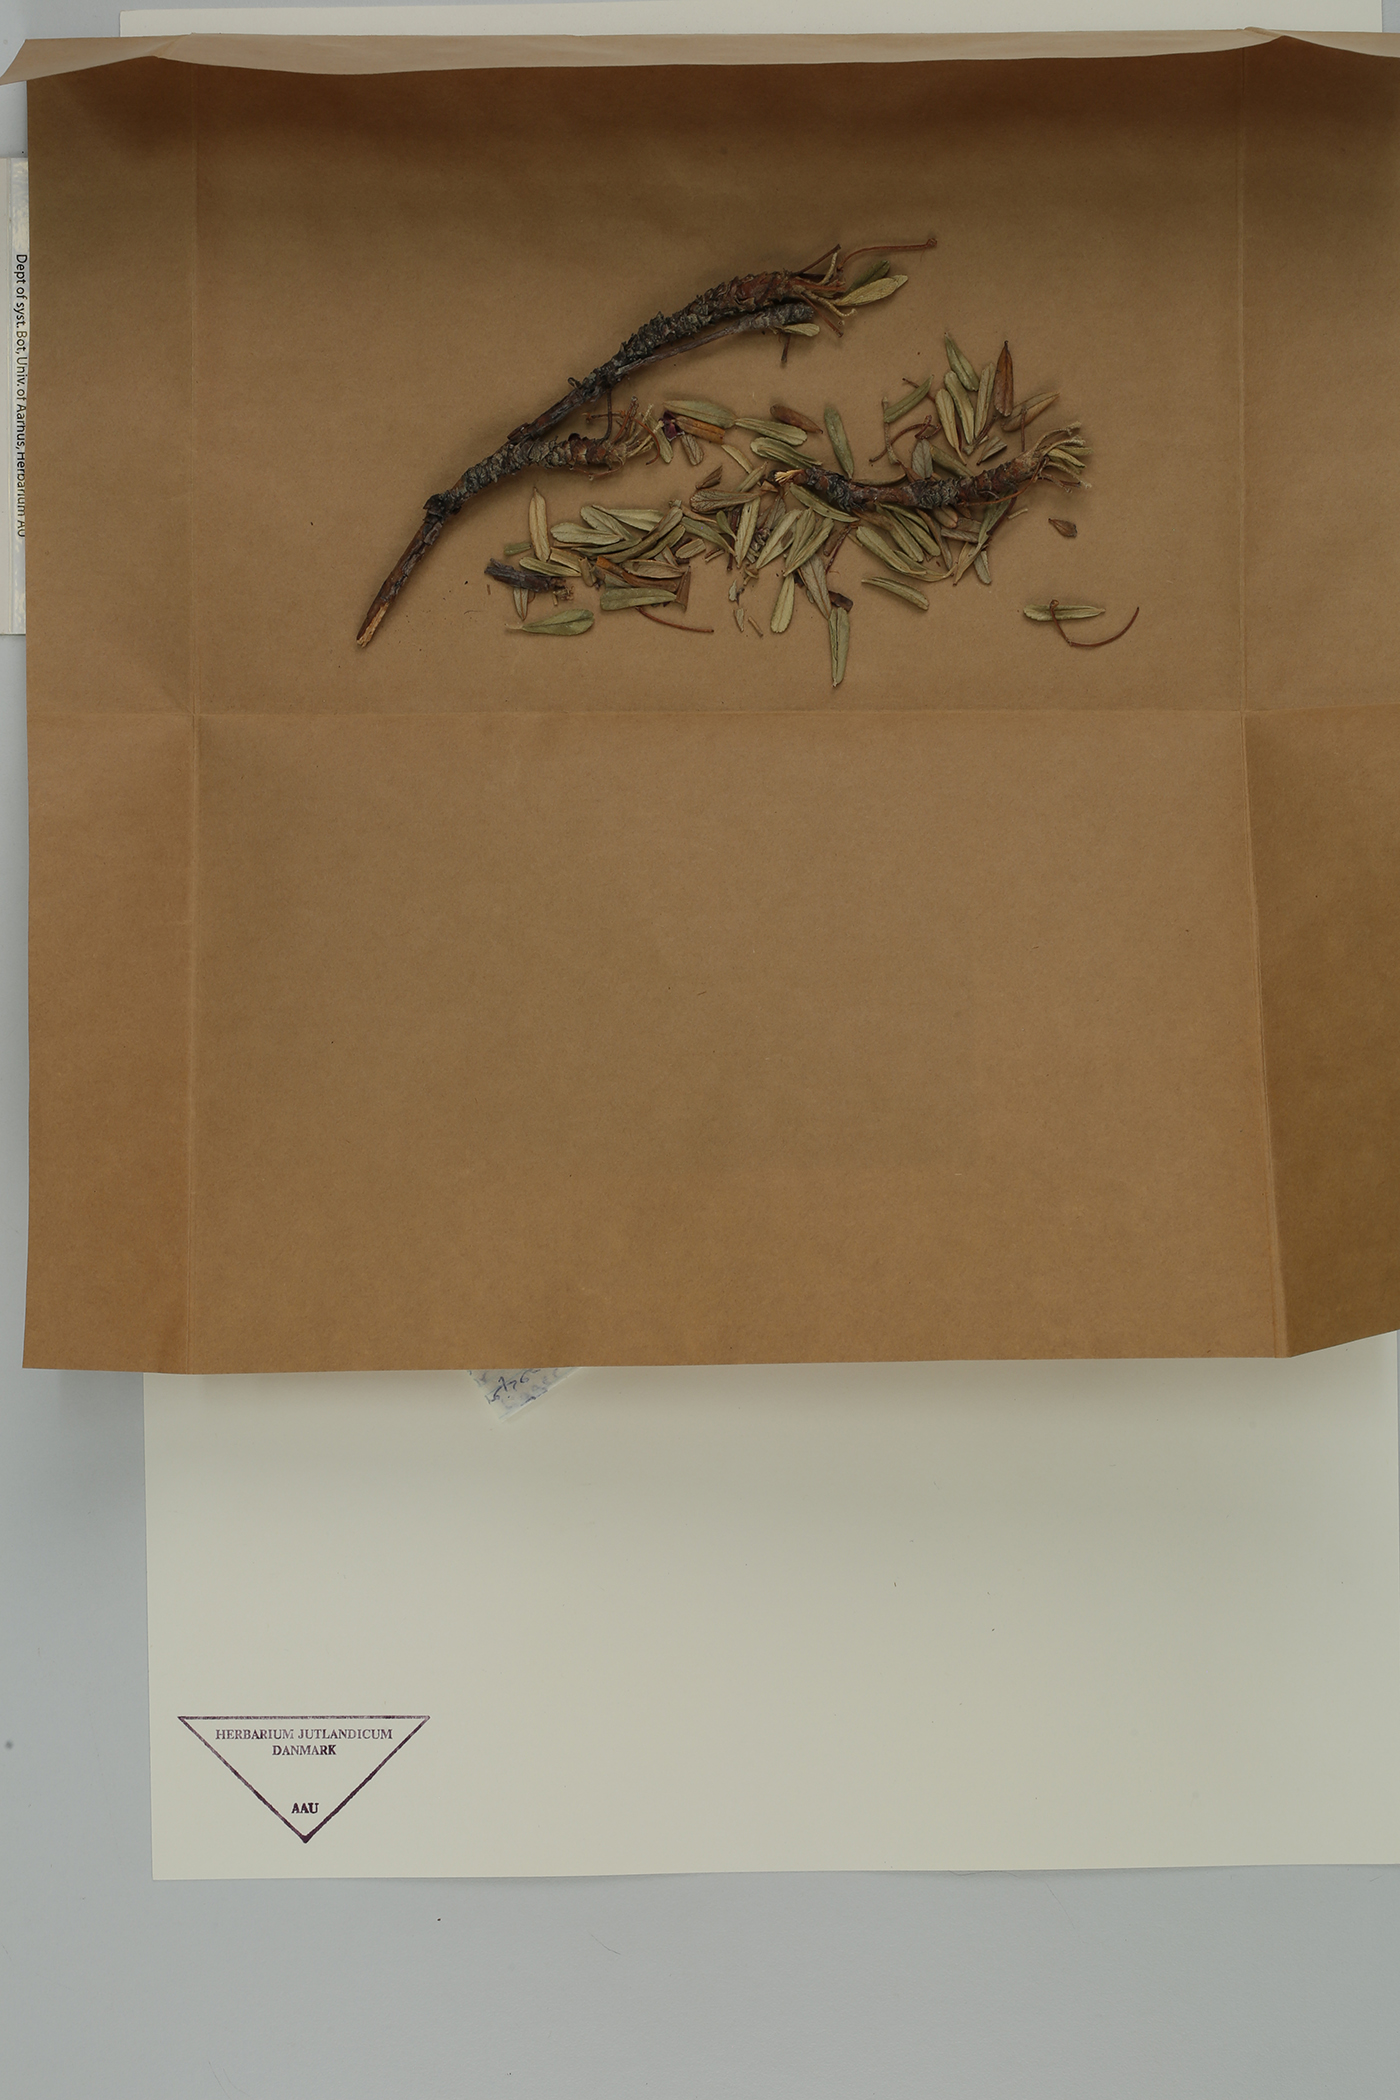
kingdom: Plantae
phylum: Tracheophyta
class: Magnoliopsida
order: Rosales
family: Rosaceae
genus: Polylepis
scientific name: Polylepis incana
